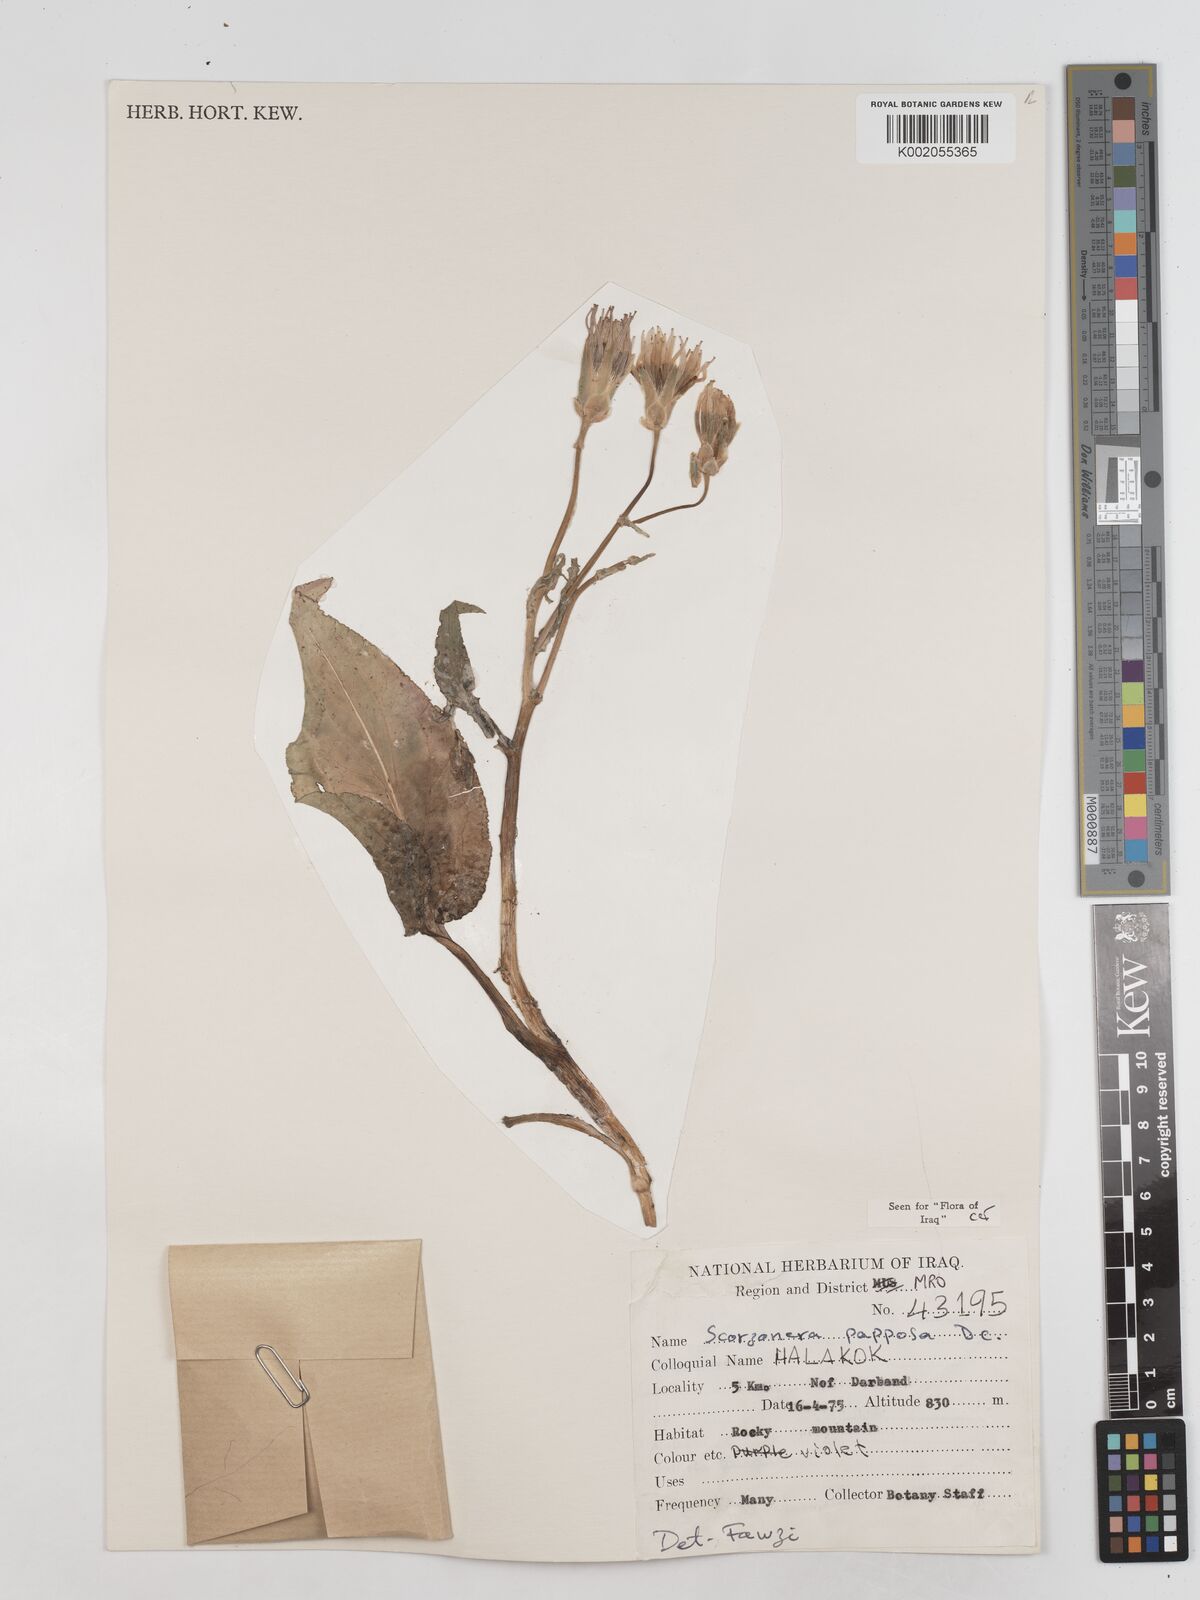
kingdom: Plantae
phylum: Tracheophyta
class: Magnoliopsida
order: Asterales
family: Asteraceae
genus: Pseudopodospermum
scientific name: Pseudopodospermum papposum
